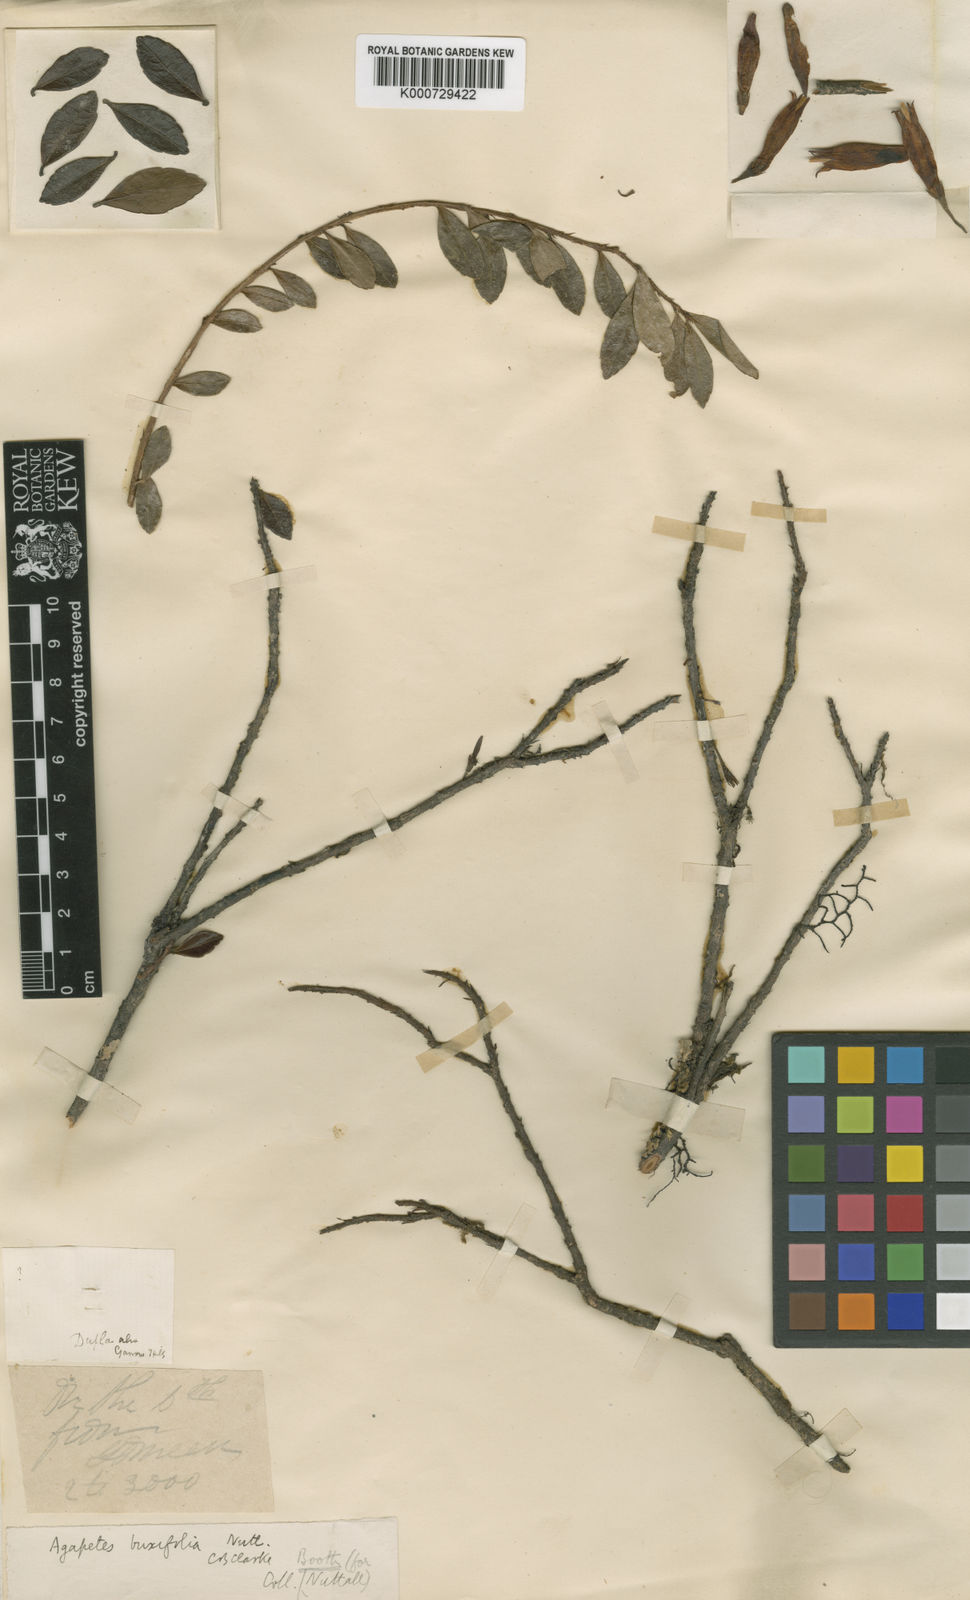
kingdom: Plantae
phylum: Tracheophyta
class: Magnoliopsida
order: Ericales
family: Ericaceae
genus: Agapetes
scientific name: Agapetes buxifolia
